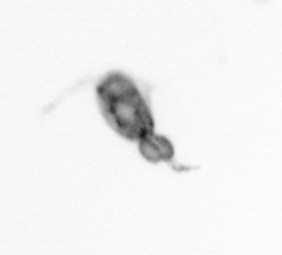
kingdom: Animalia
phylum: Arthropoda
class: Copepoda
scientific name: Copepoda
